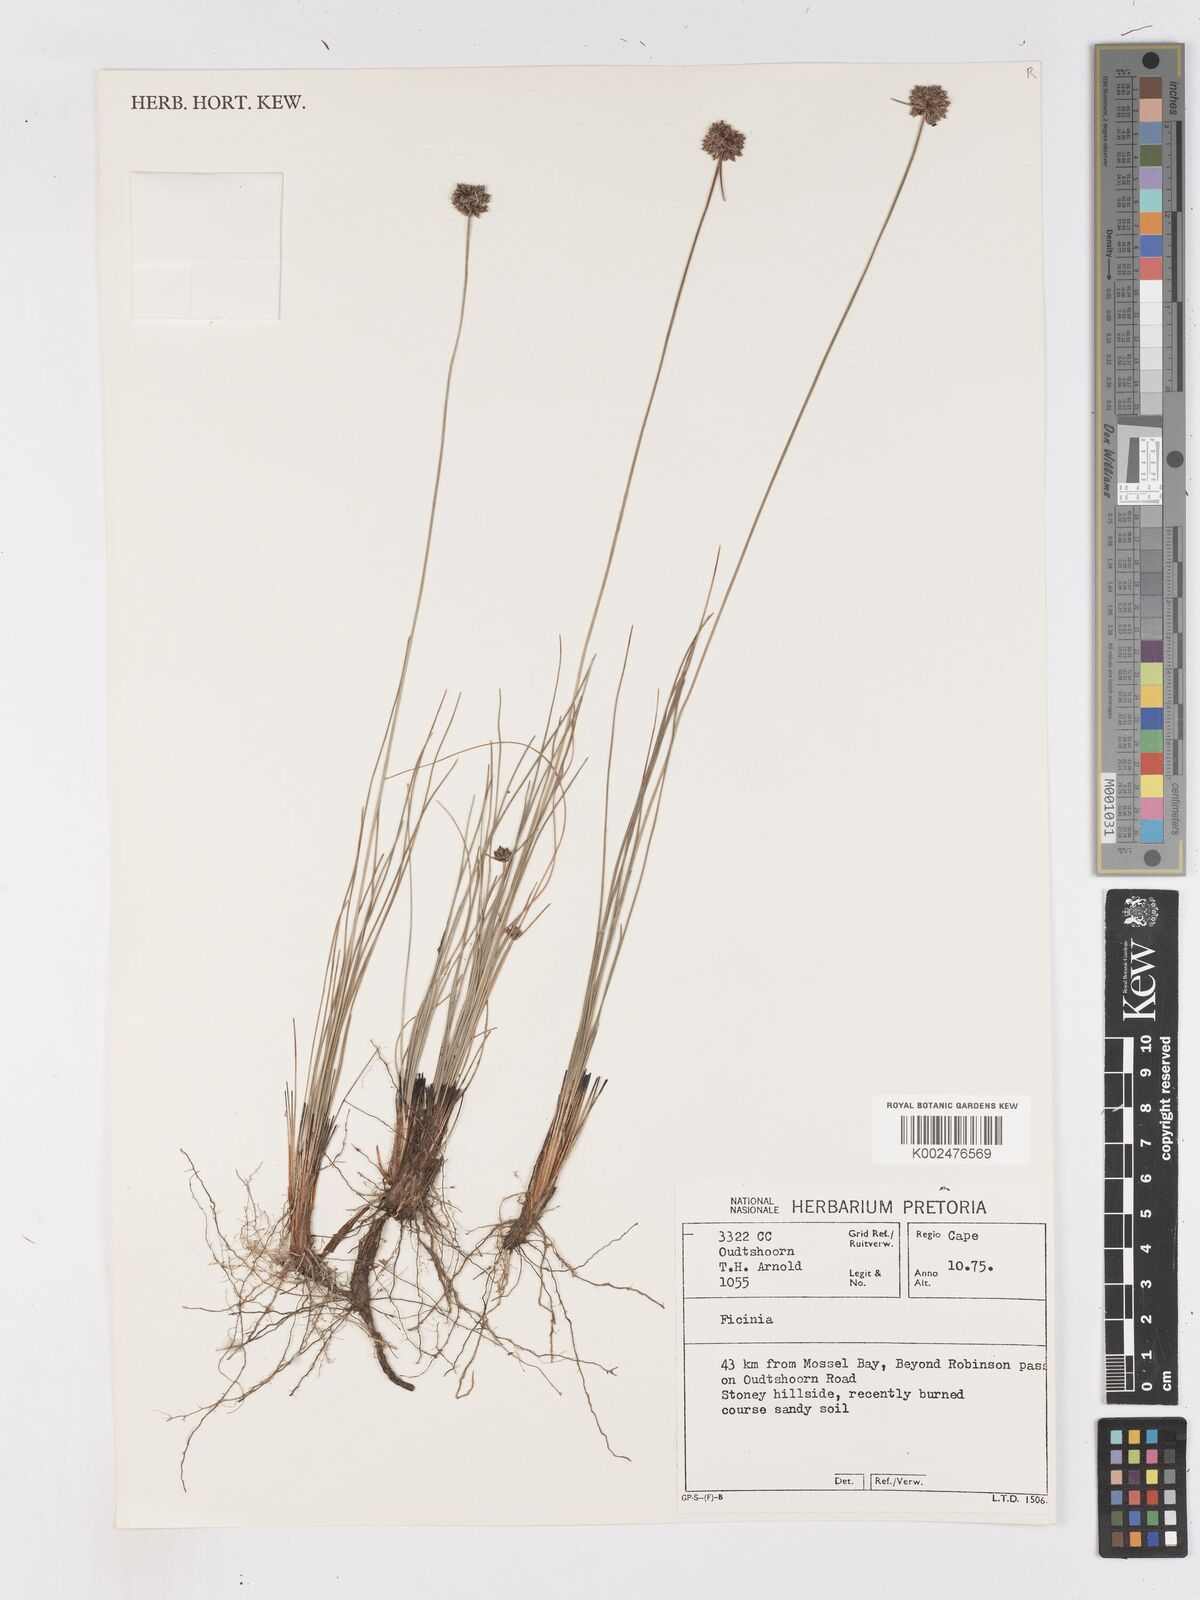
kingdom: Plantae
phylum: Tracheophyta
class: Liliopsida
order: Poales
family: Cyperaceae
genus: Ficinia
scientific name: Ficinia
